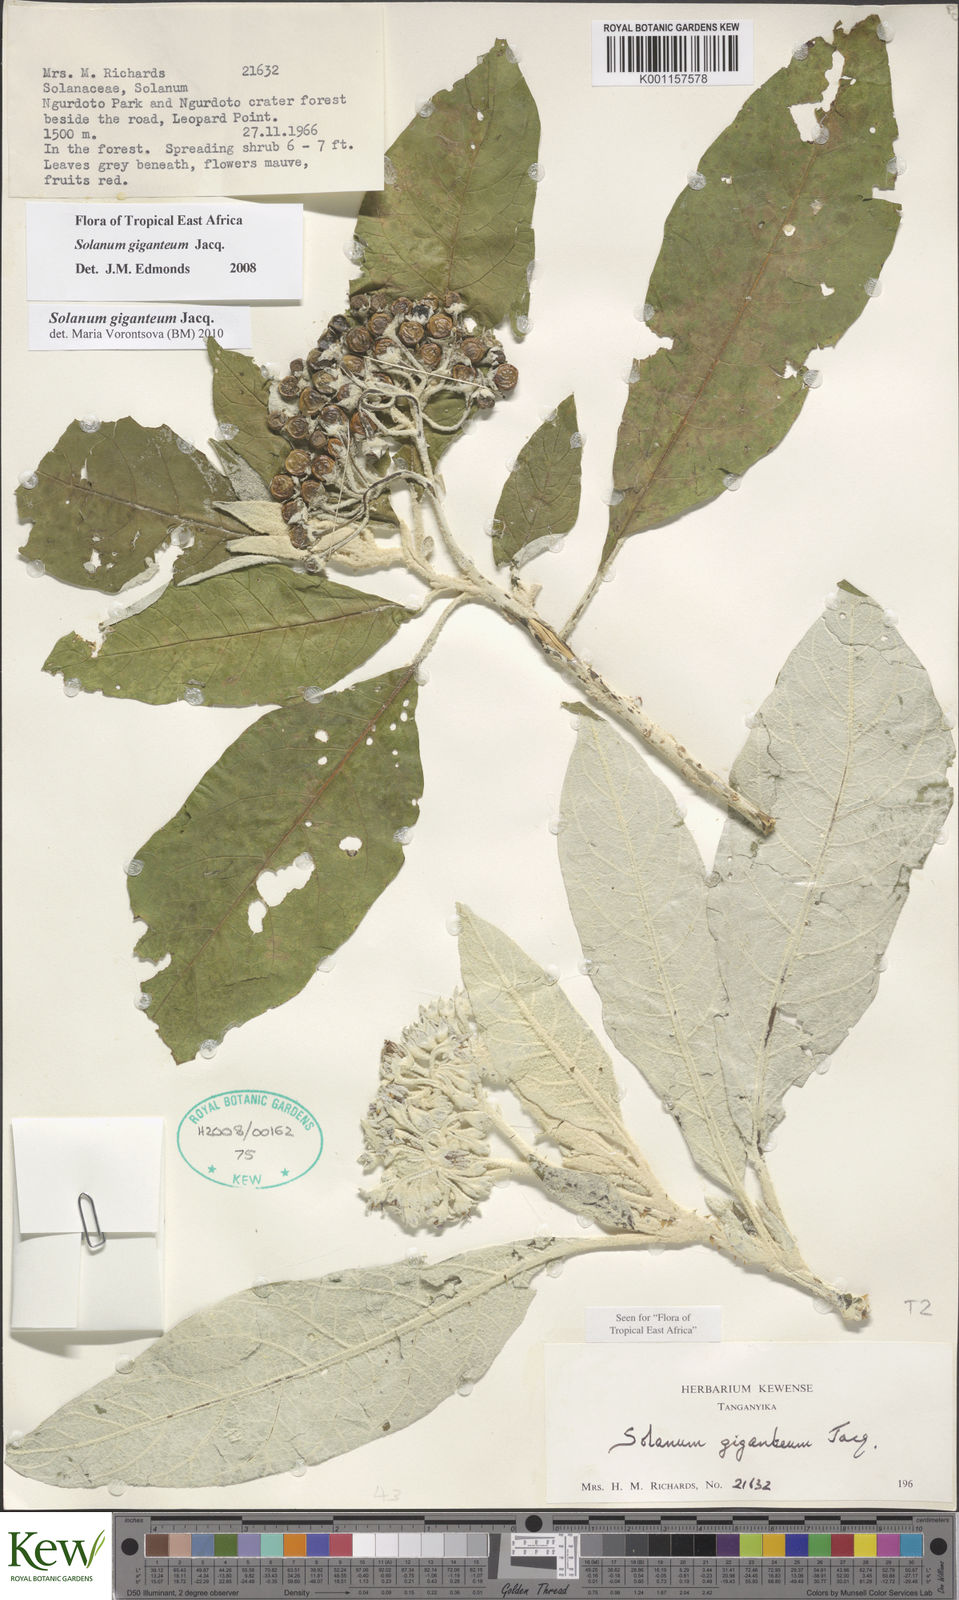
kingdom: Plantae
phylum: Tracheophyta
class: Magnoliopsida
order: Solanales
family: Solanaceae
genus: Solanum
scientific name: Solanum giganteum
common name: Healing-leaf-tree
